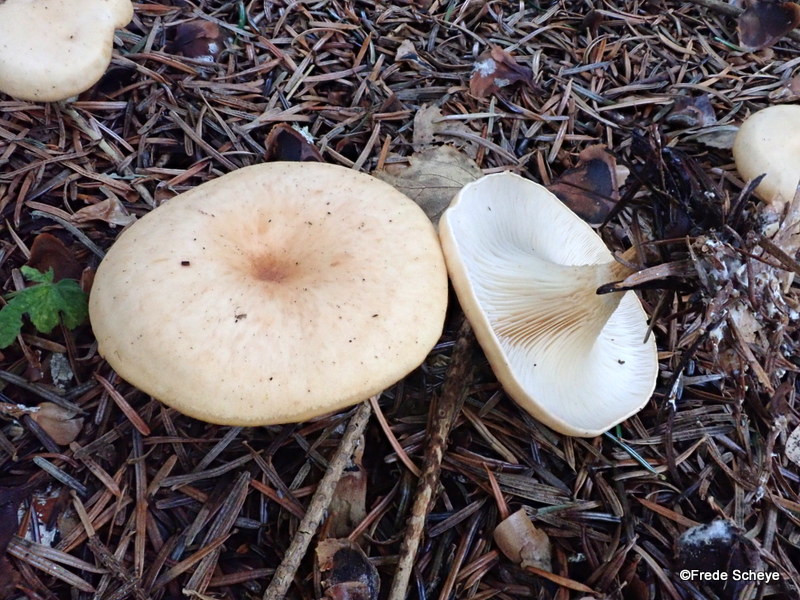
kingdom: Fungi
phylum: Basidiomycota
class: Agaricomycetes
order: Agaricales
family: Tricholomataceae
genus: Paralepista
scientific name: Paralepista flaccida
